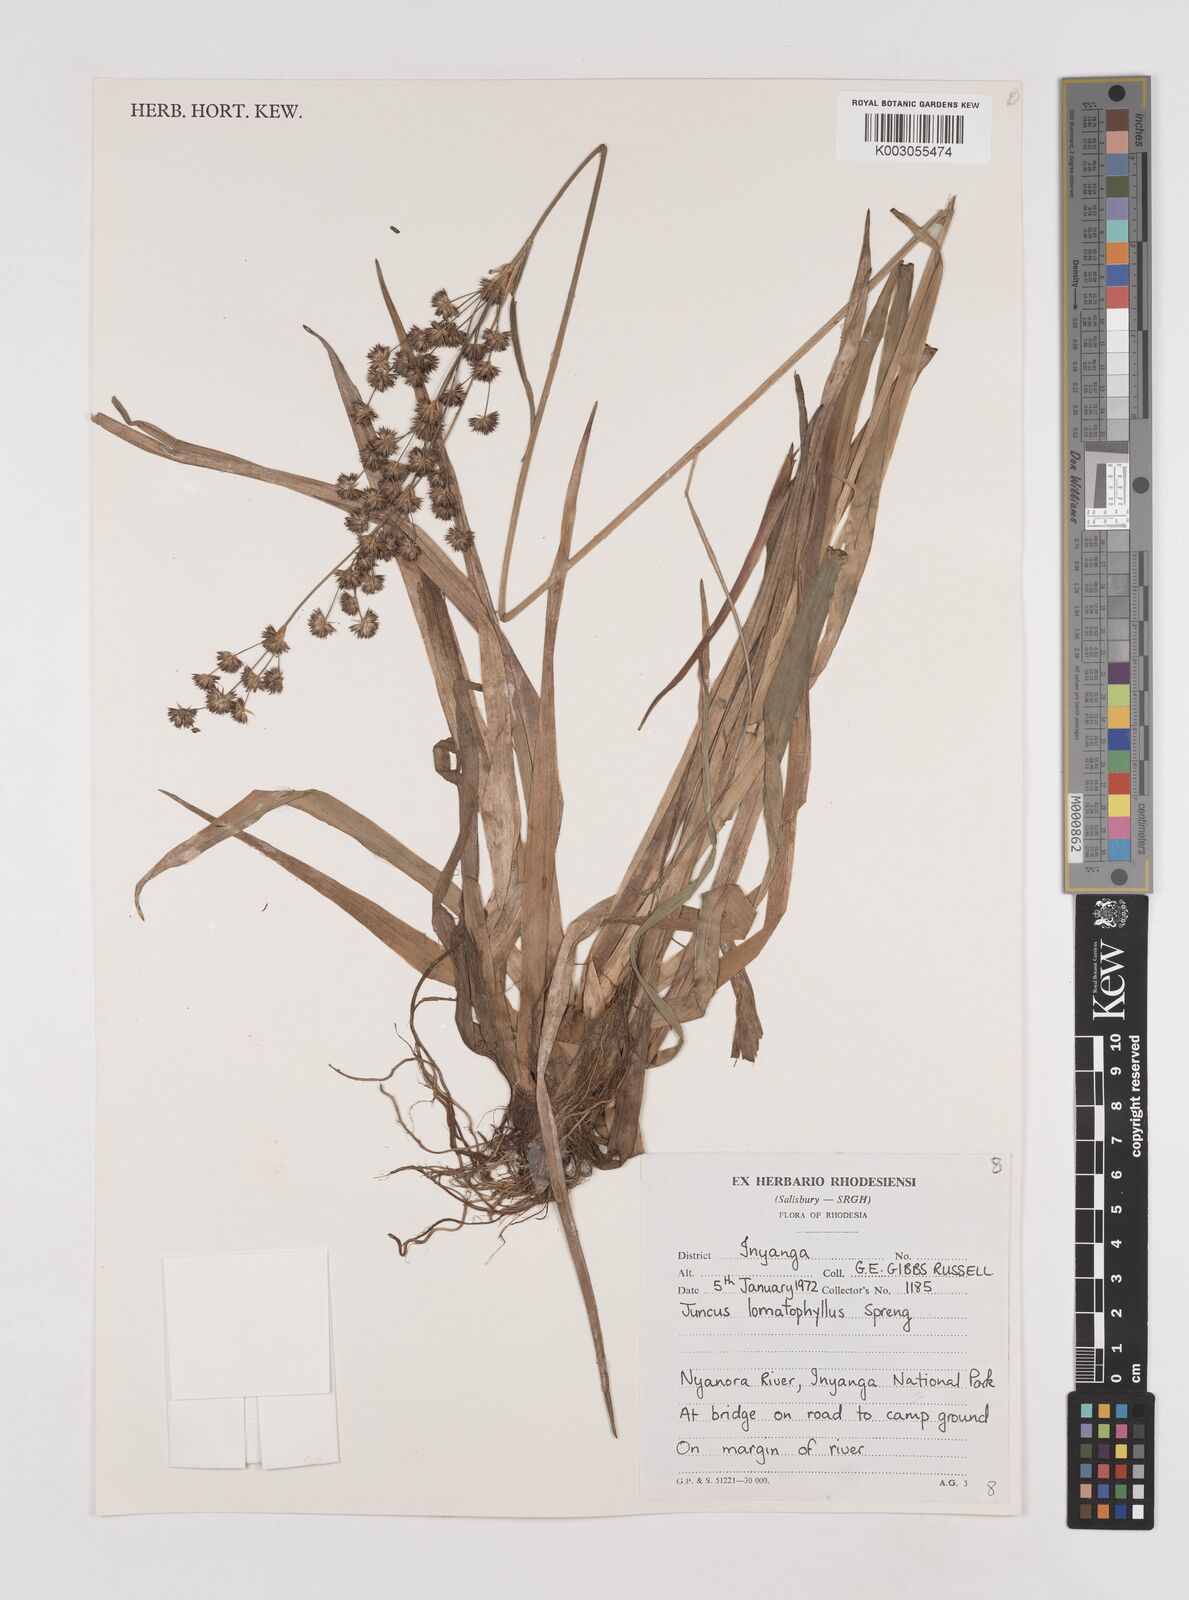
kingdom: Plantae
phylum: Tracheophyta
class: Liliopsida
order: Poales
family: Juncaceae
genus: Juncus
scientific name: Juncus lomatophyllus
